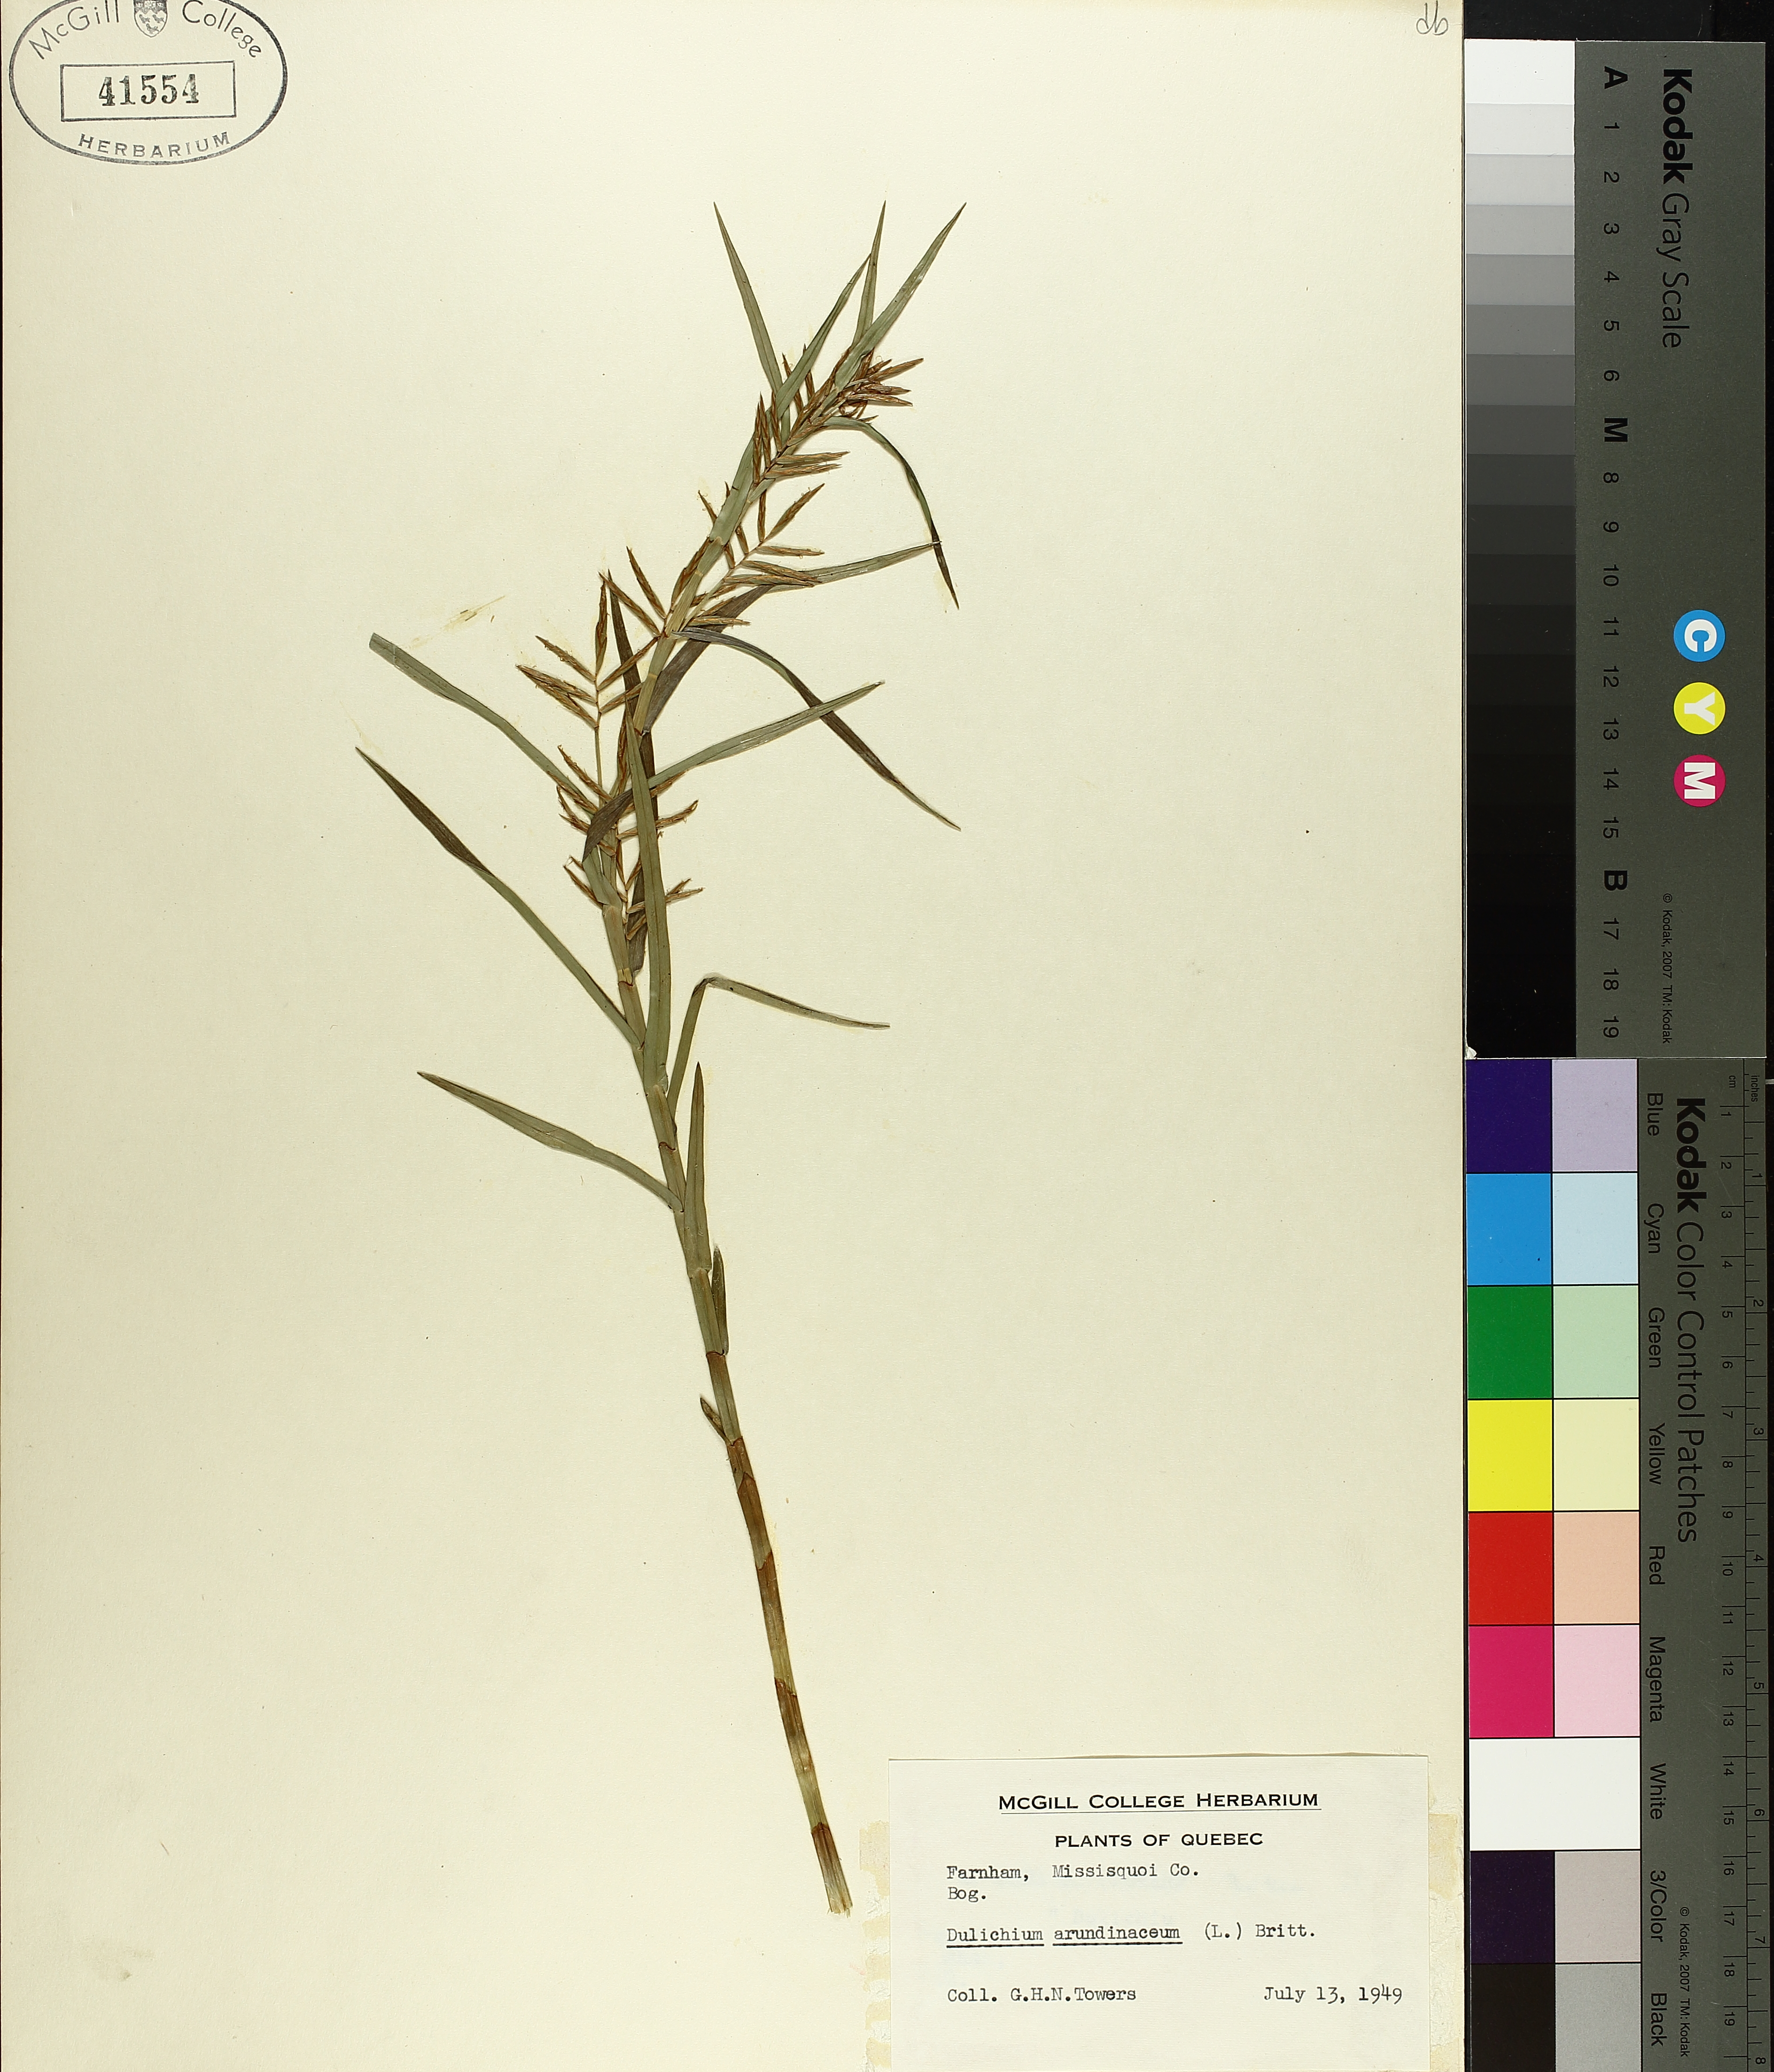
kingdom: Plantae
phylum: Tracheophyta
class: Liliopsida
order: Poales
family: Cyperaceae
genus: Dulichium
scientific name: Dulichium arundinaceum
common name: Three-way sedge
